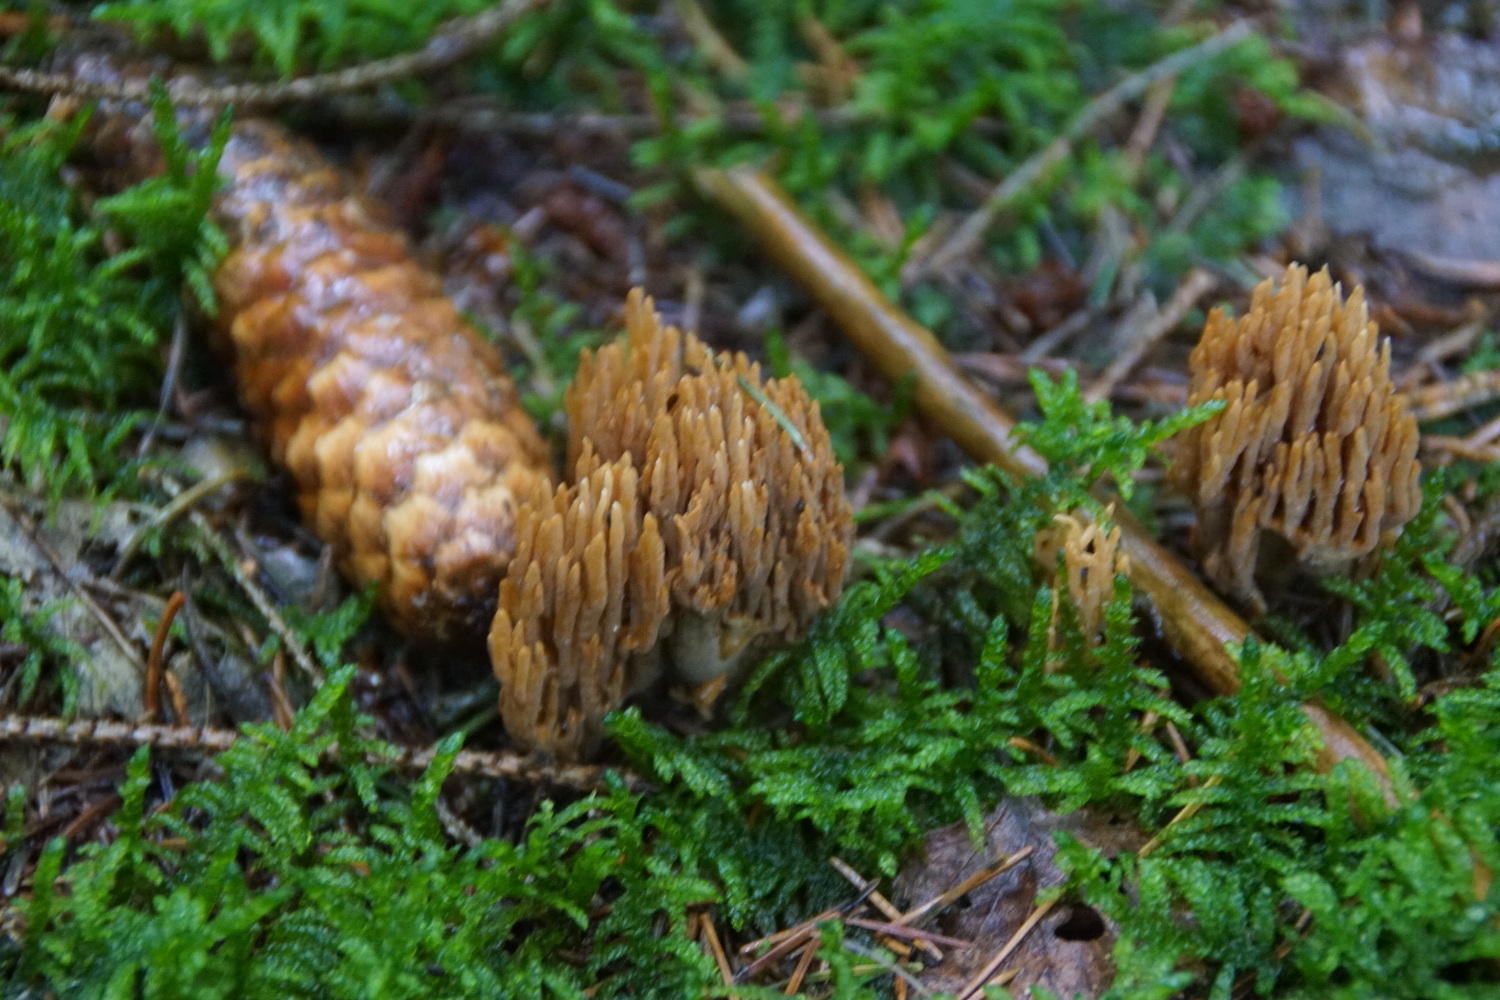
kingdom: Fungi
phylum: Basidiomycota
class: Agaricomycetes
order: Gomphales
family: Gomphaceae
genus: Phaeoclavulina
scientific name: Phaeoclavulina eumorpha
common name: gran-koralsvamp
